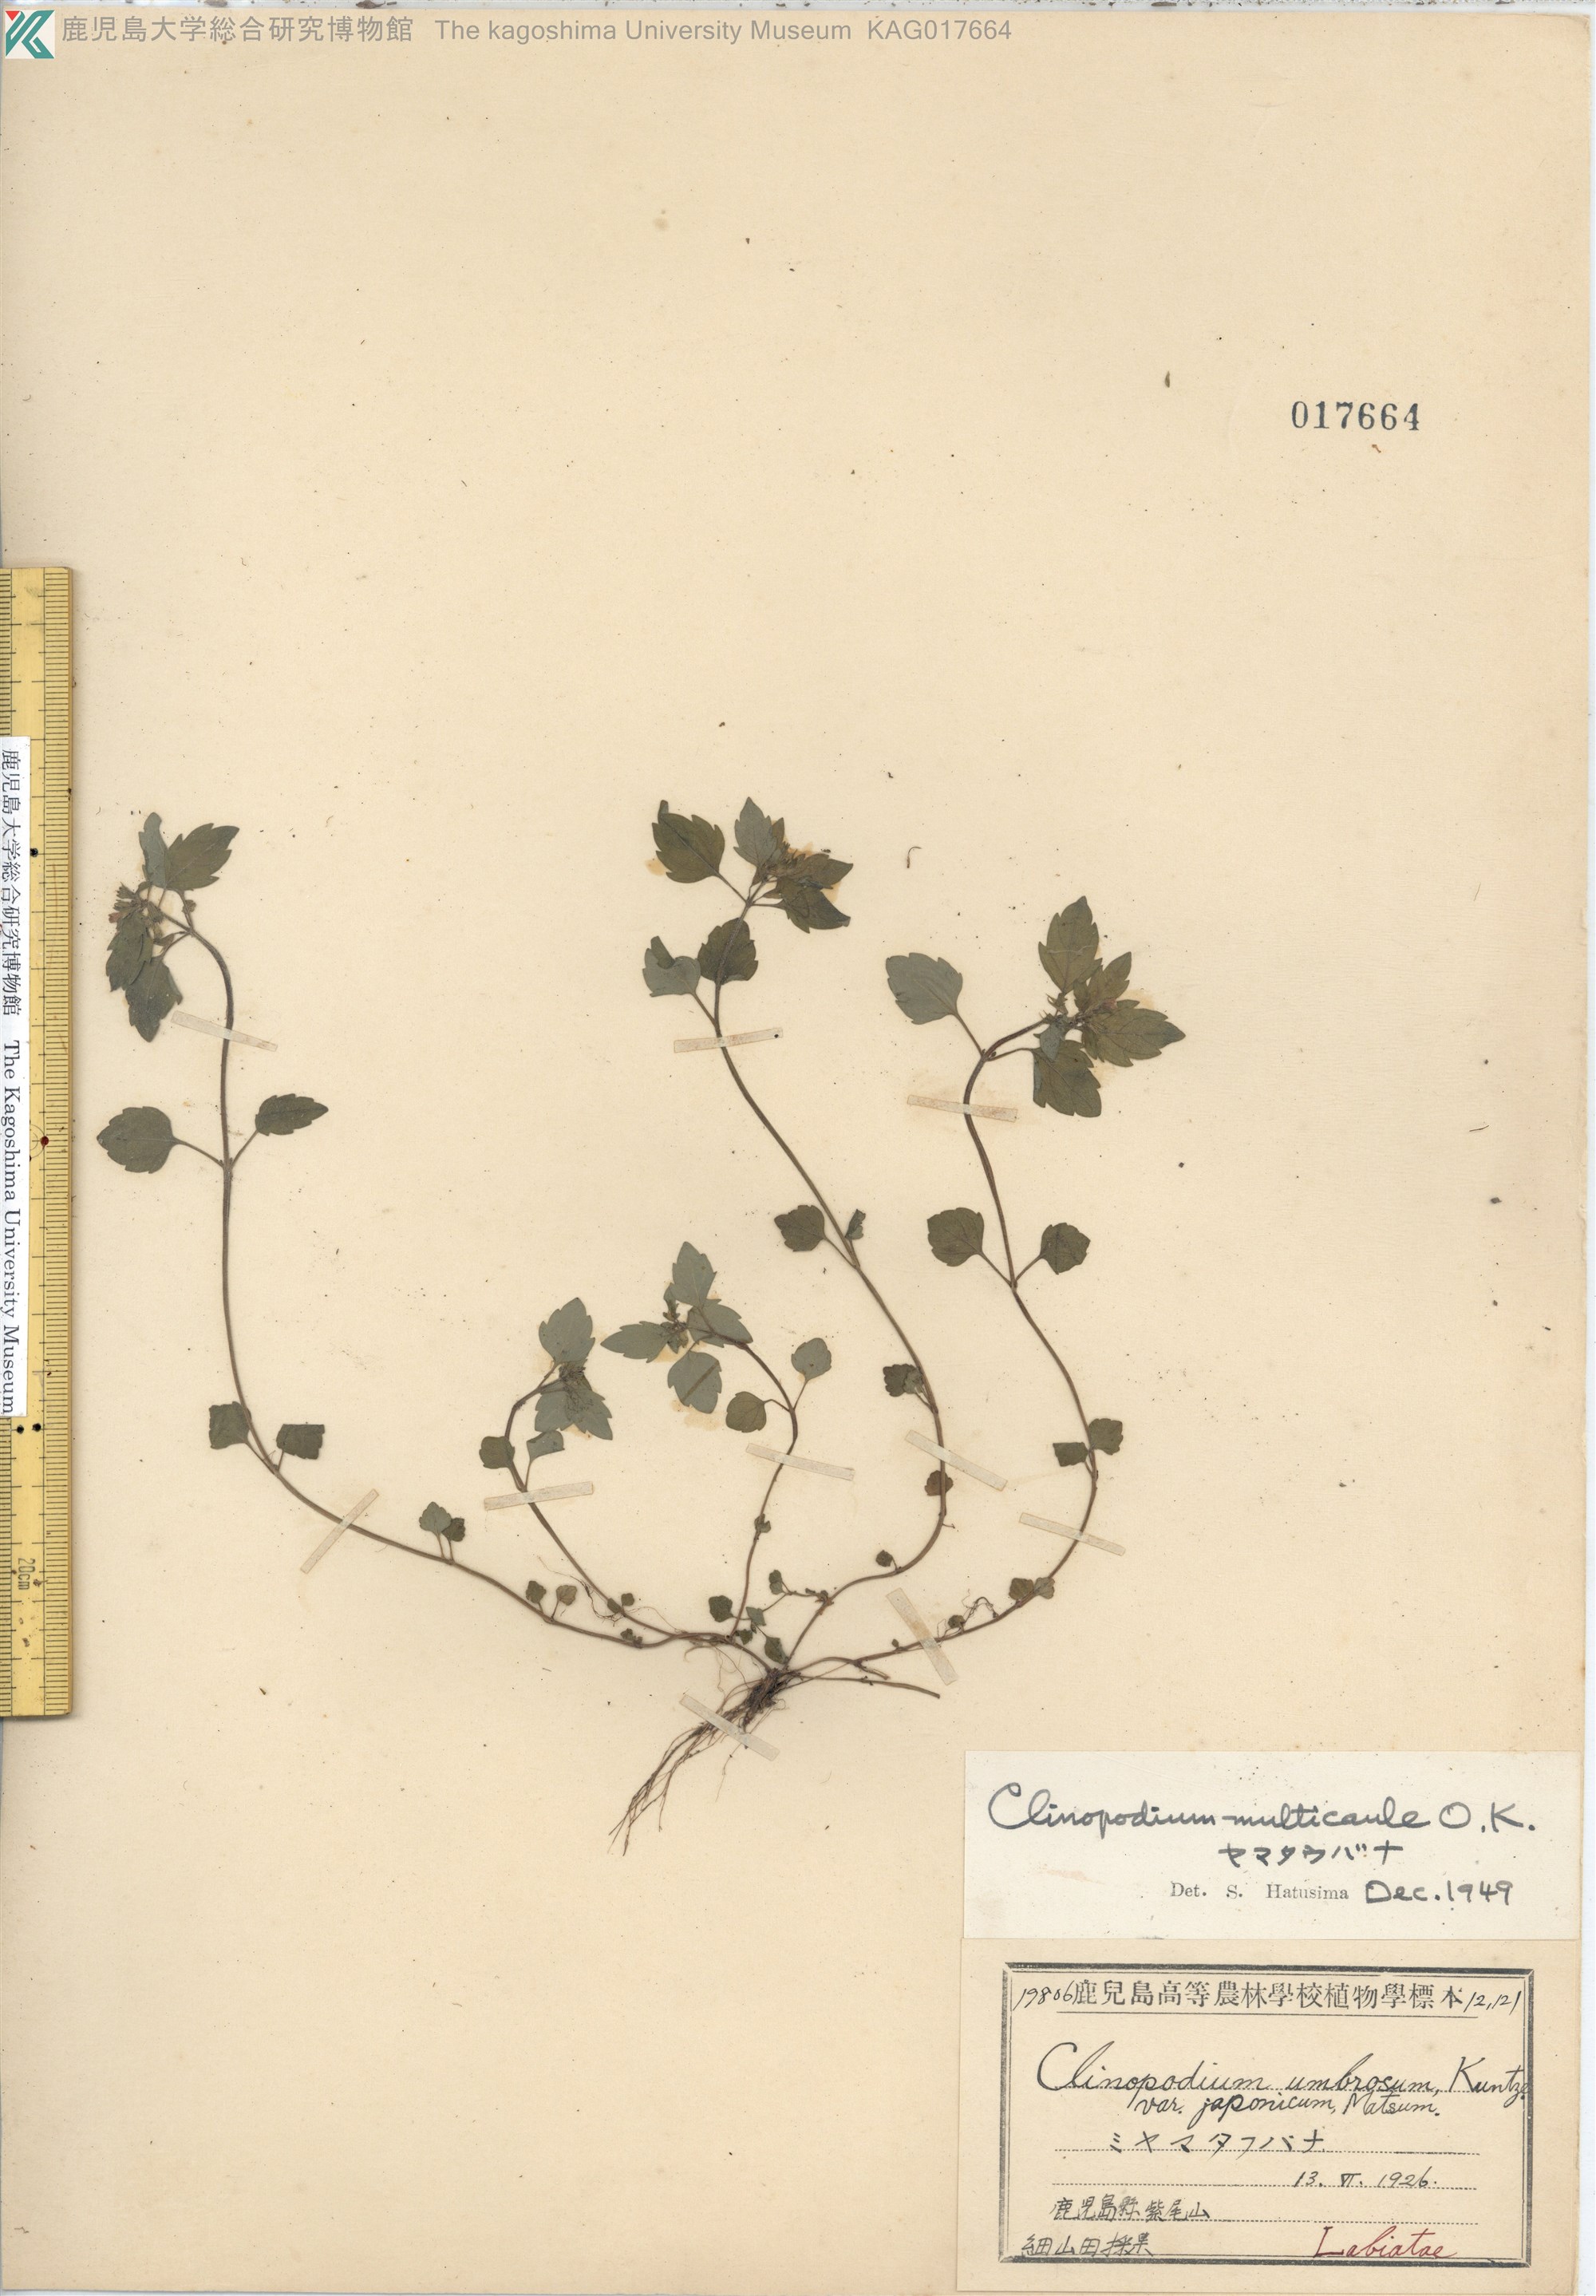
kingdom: Plantae
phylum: Tracheophyta
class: Magnoliopsida
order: Lamiales
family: Lamiaceae
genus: Clinopodium
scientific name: Clinopodium multicaule
